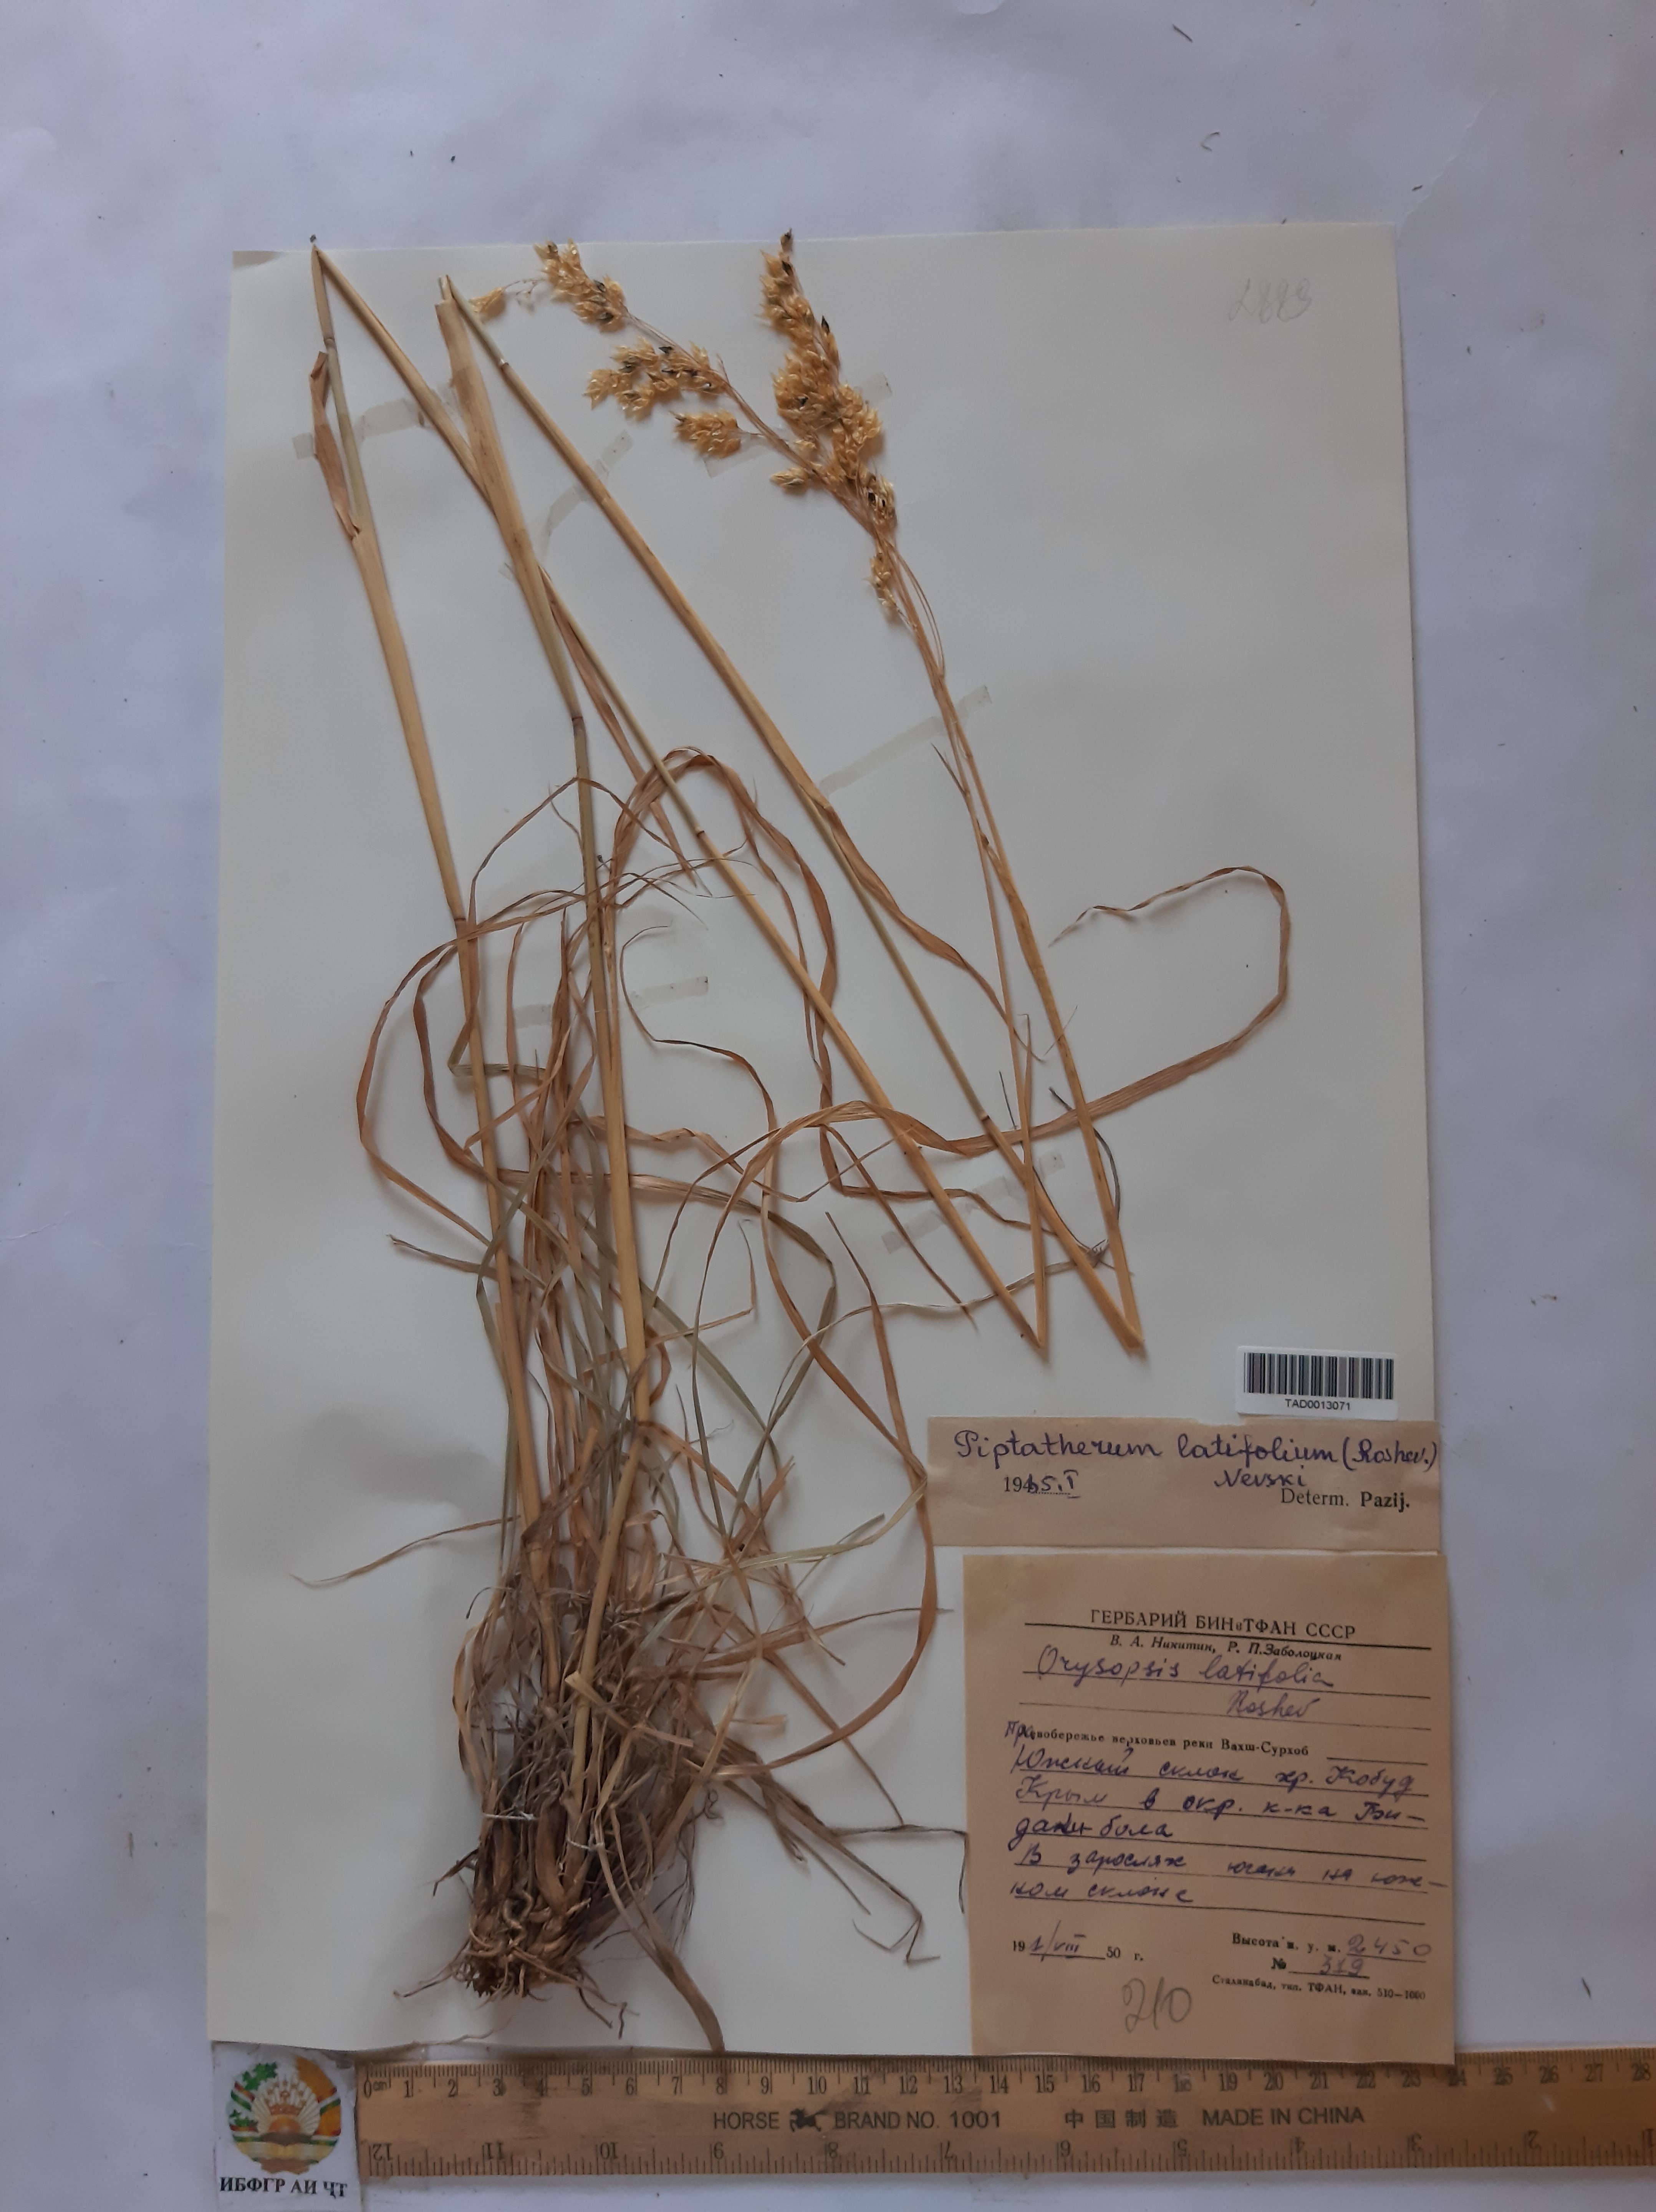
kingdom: Plantae
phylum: Tracheophyta
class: Liliopsida
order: Poales
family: Poaceae
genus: Piptatherum
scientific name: Piptatherum laterale
